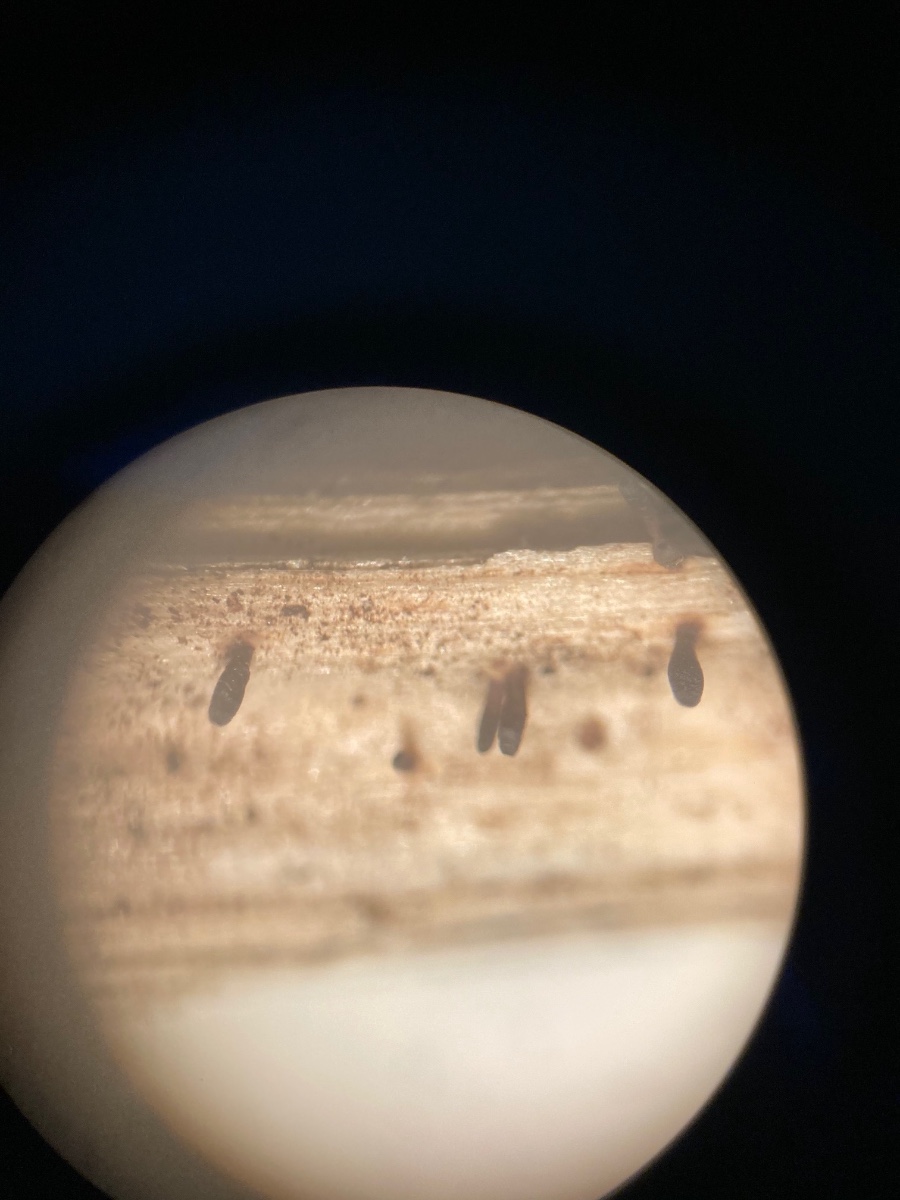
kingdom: Fungi
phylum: Ascomycota
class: Dothideomycetes
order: Acrospermales
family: Acrospermaceae
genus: Acrospermum
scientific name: Acrospermum compressum
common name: nælde-stængeltunge
